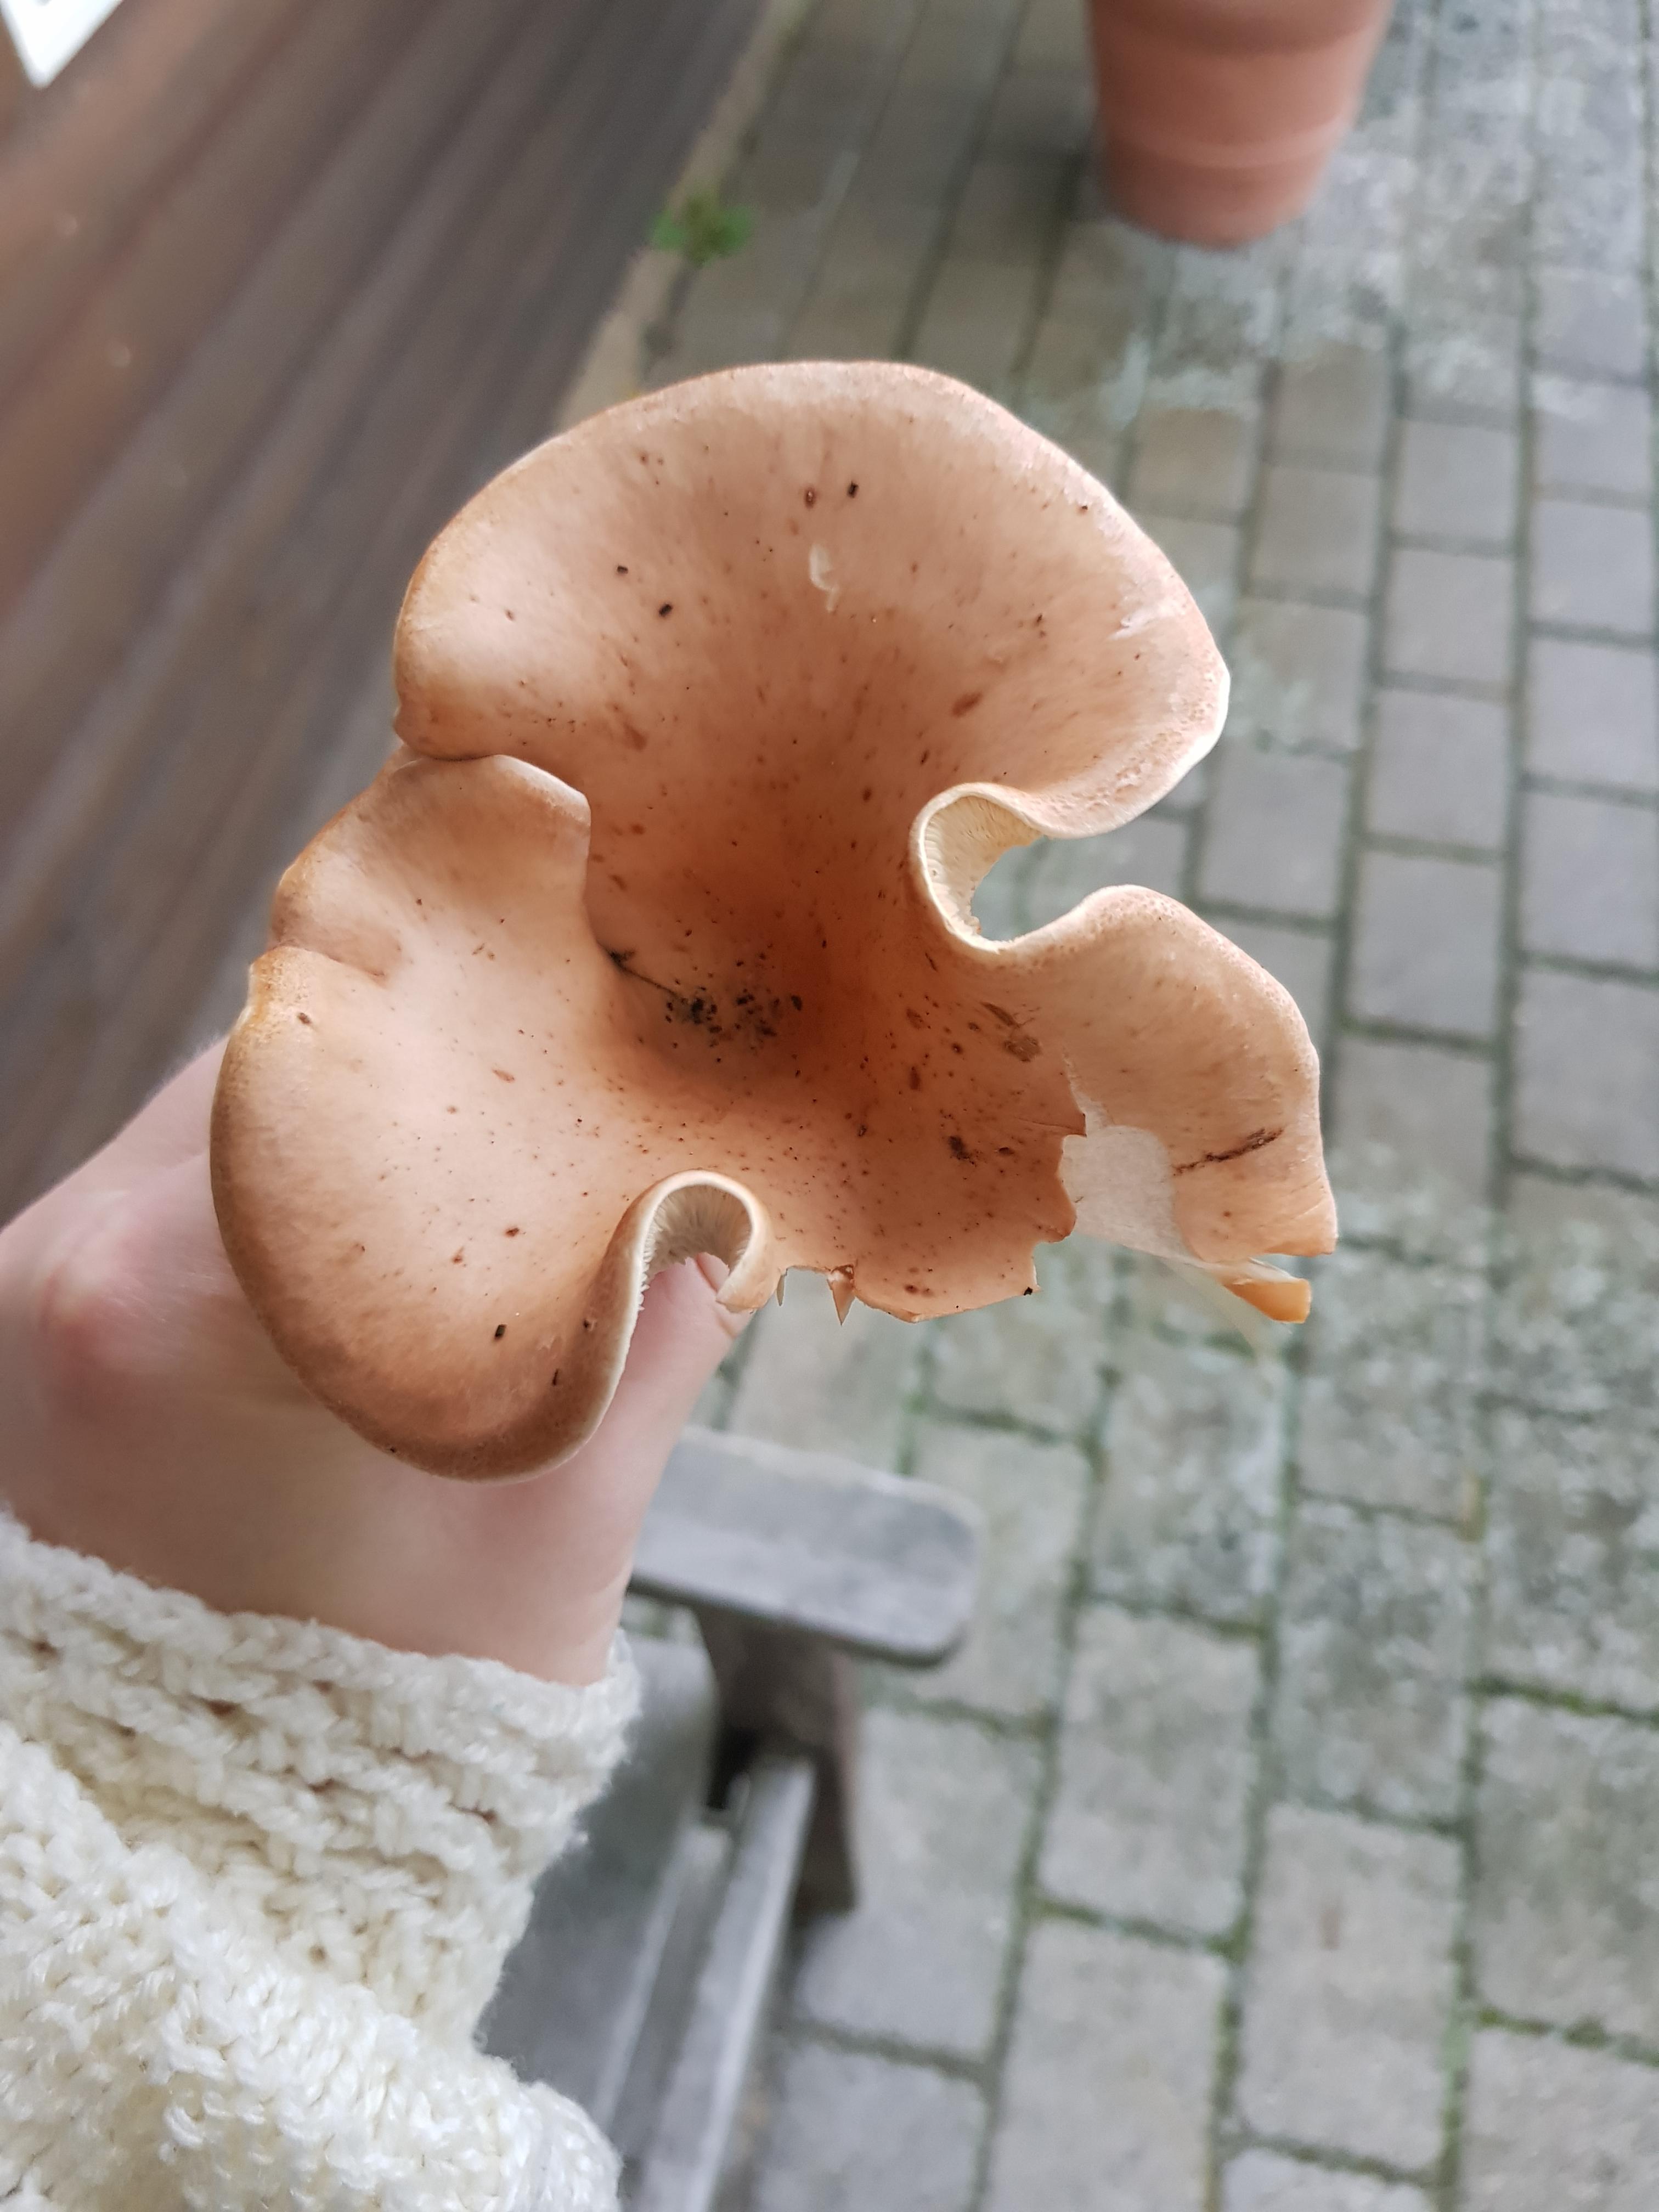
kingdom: Fungi
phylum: Basidiomycota
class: Agaricomycetes
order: Agaricales
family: Tricholomataceae
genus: Paralepista
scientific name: Paralepista flaccida
